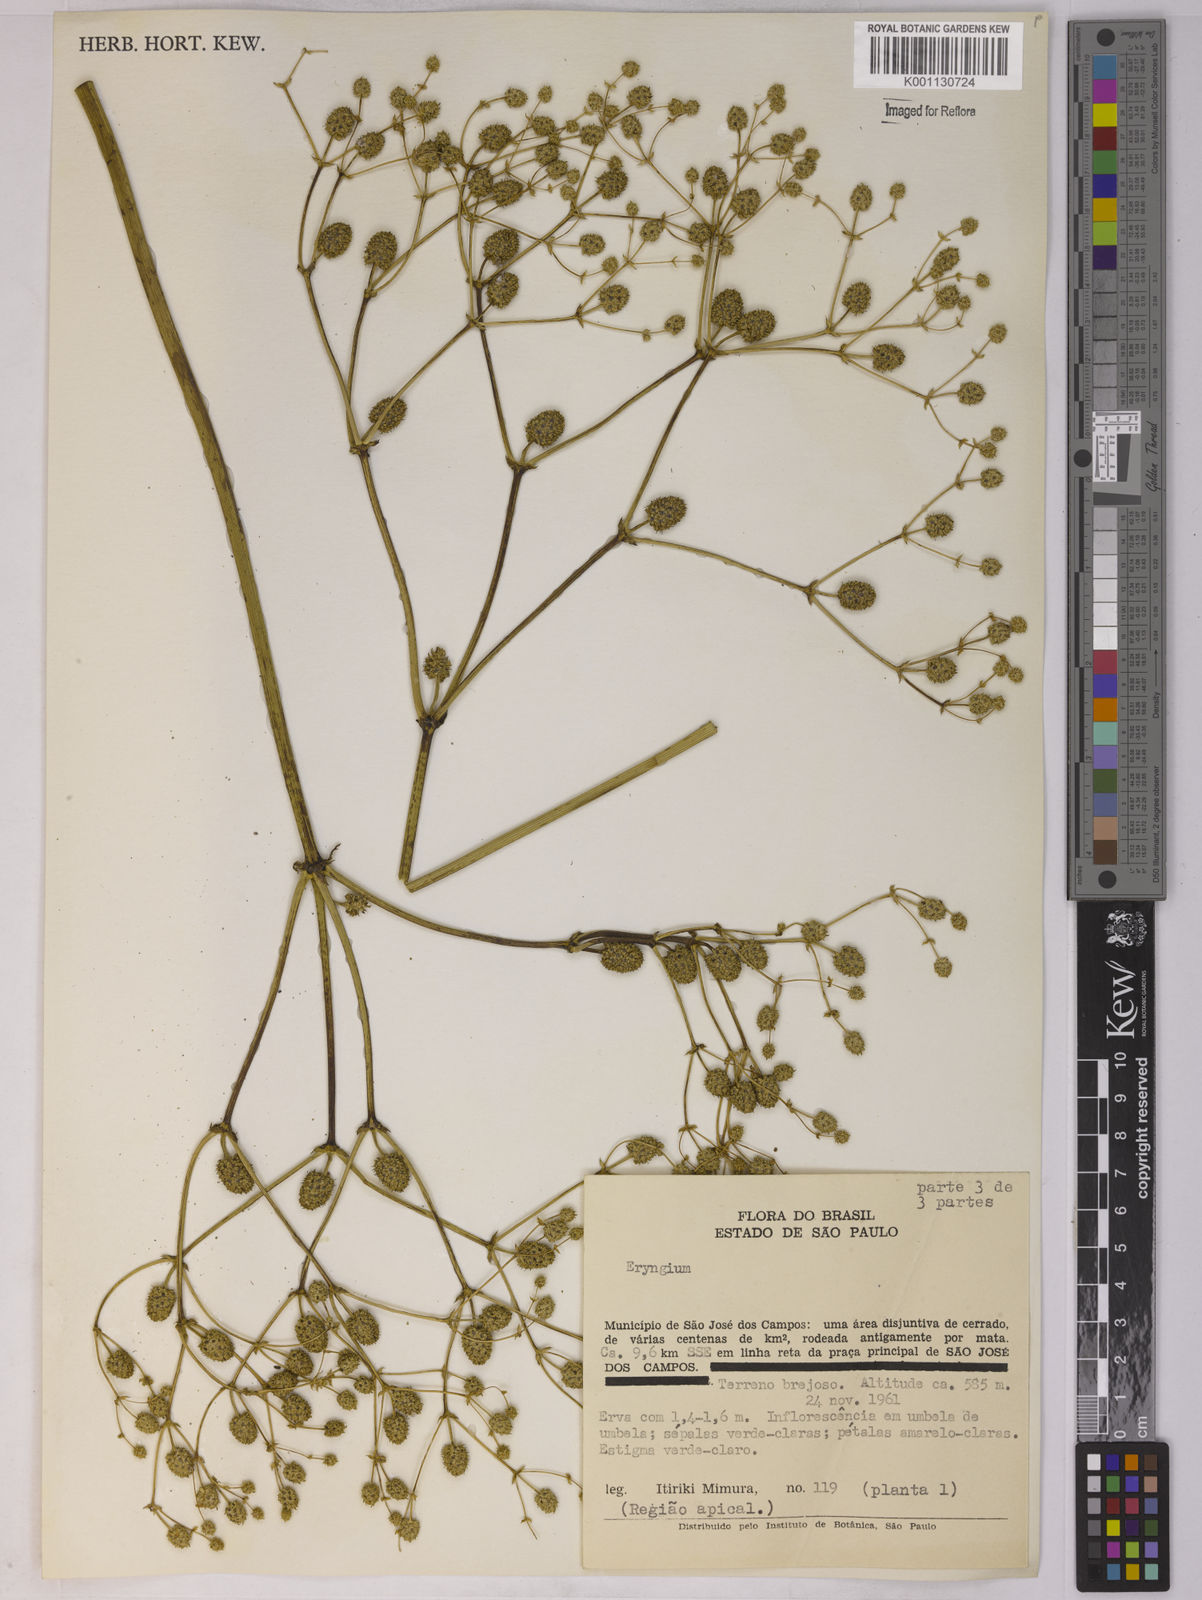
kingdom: Plantae
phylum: Tracheophyta
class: Magnoliopsida
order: Apiales
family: Apiaceae
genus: Eryngium
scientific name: Eryngium
